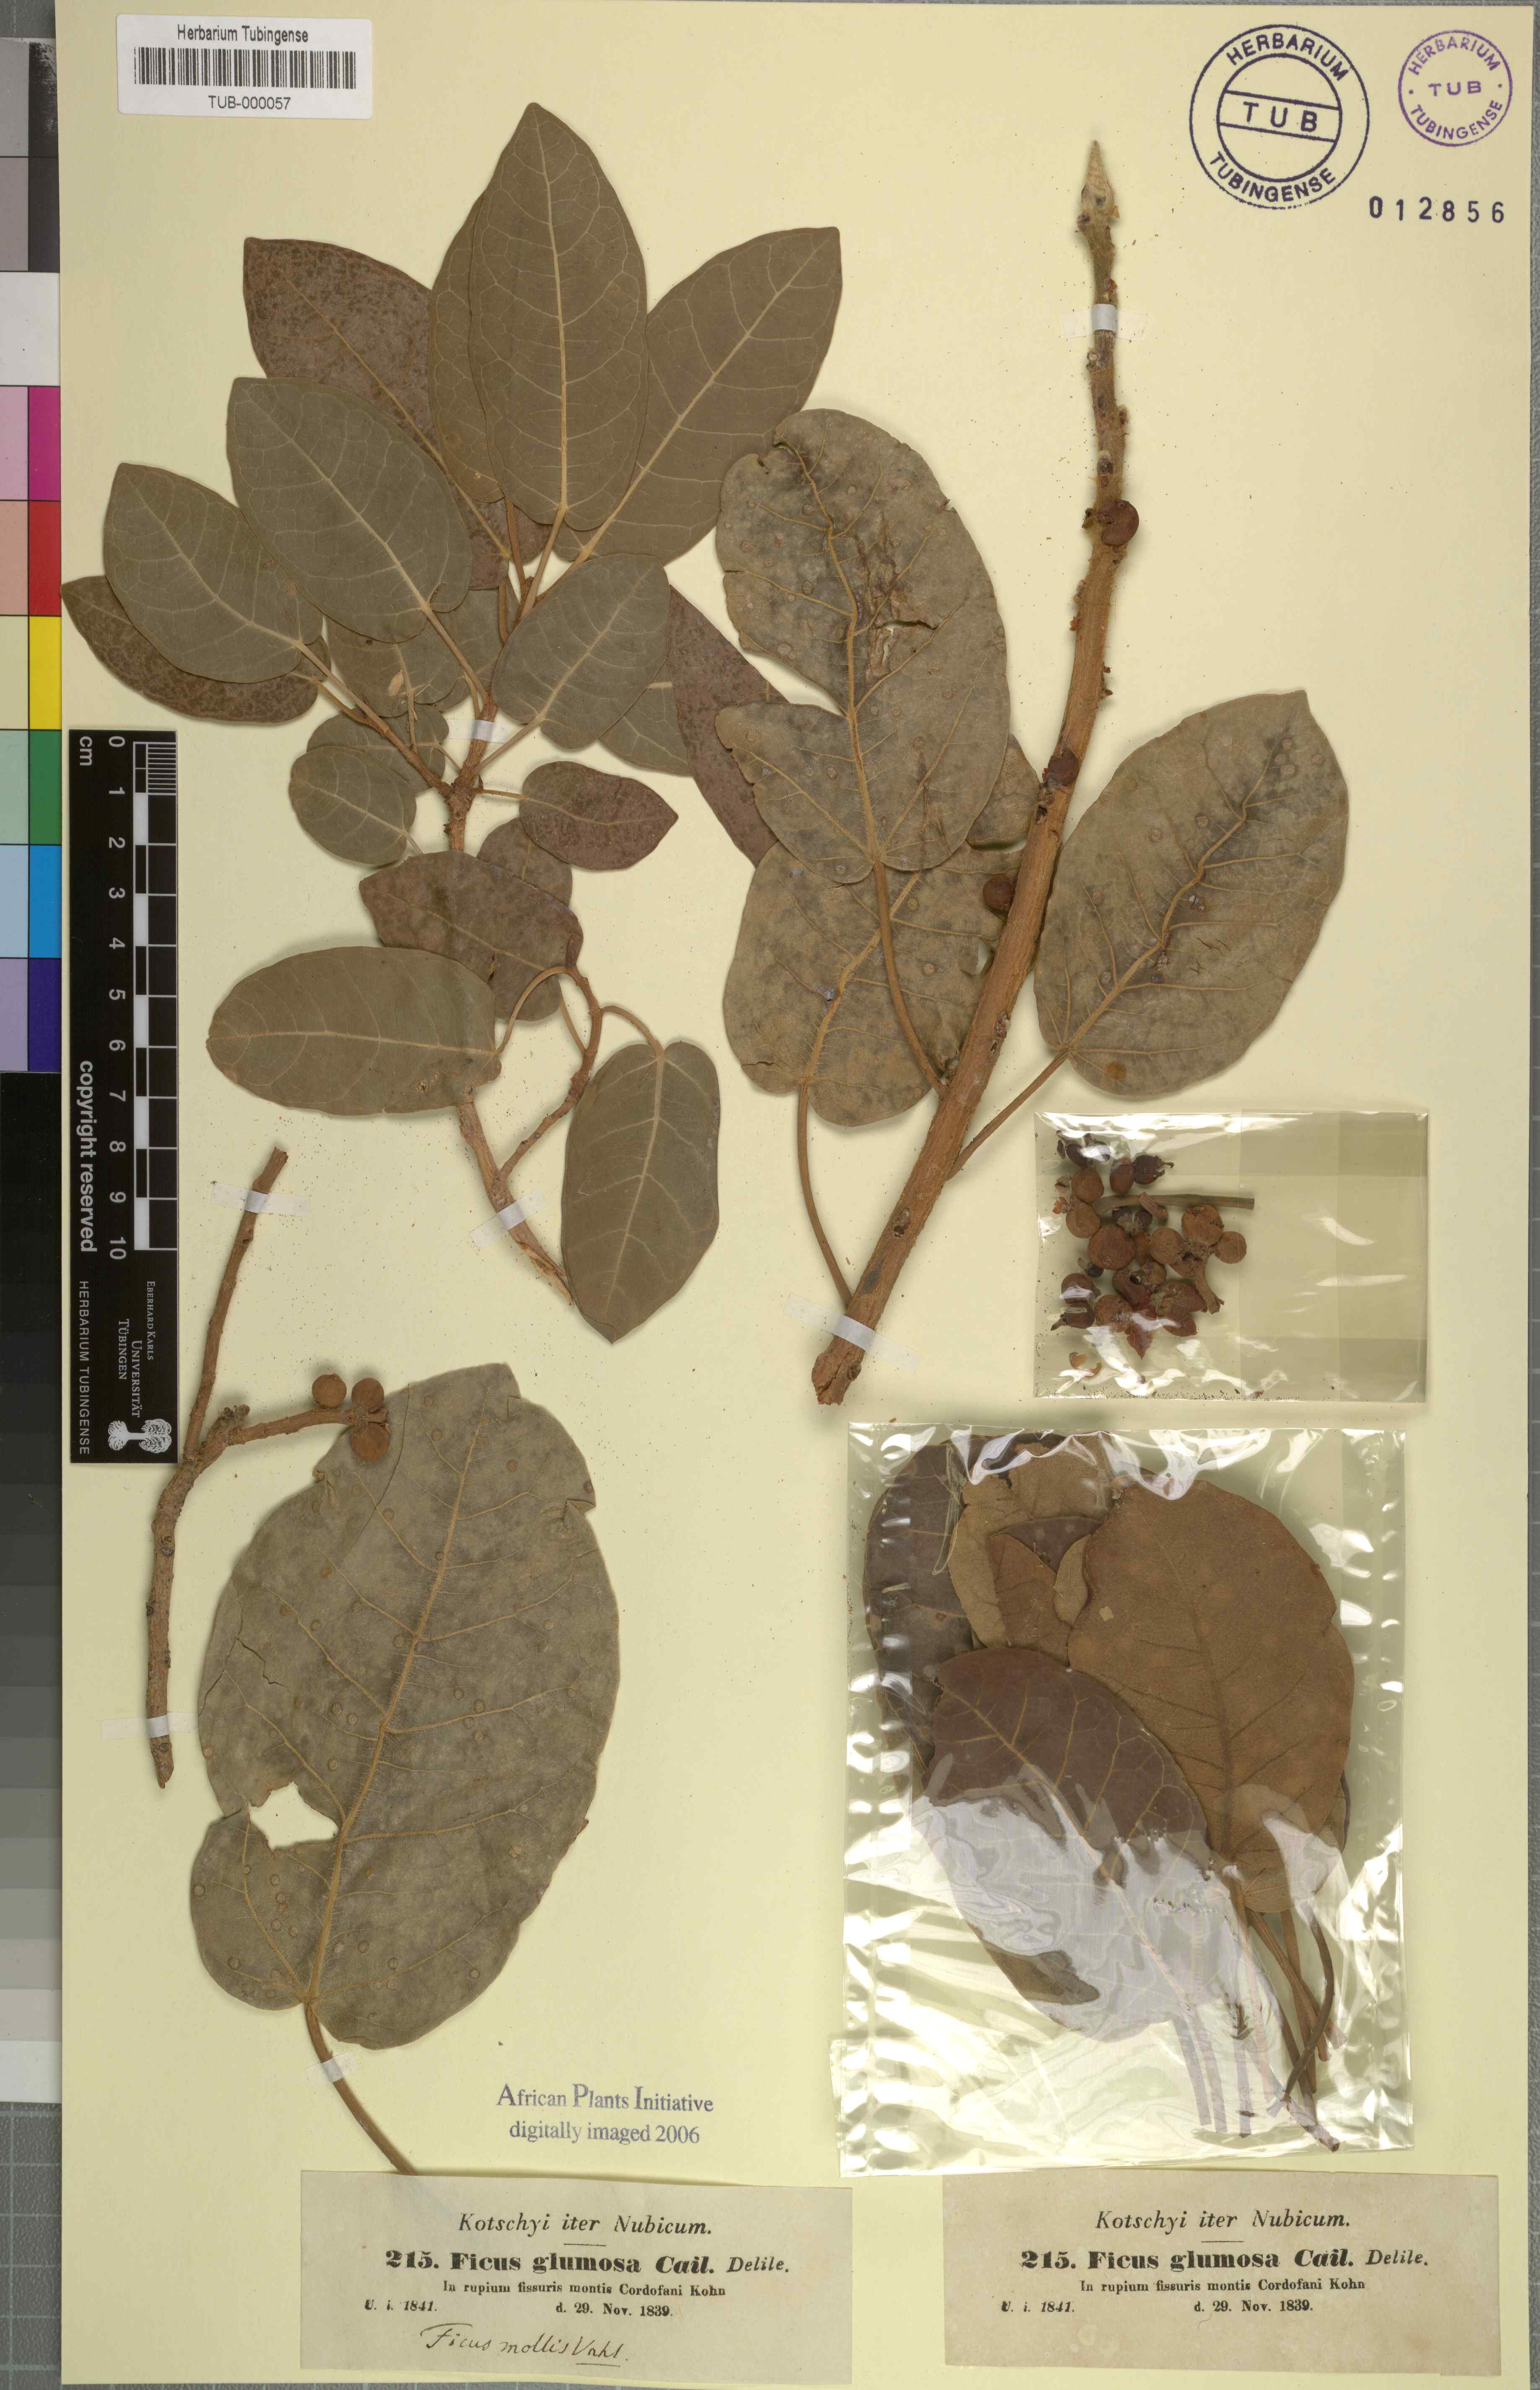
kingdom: Plantae
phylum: Tracheophyta
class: Magnoliopsida
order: Rosales
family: Moraceae
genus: Ficus
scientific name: Ficus glumosa
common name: Hairy rock fig
